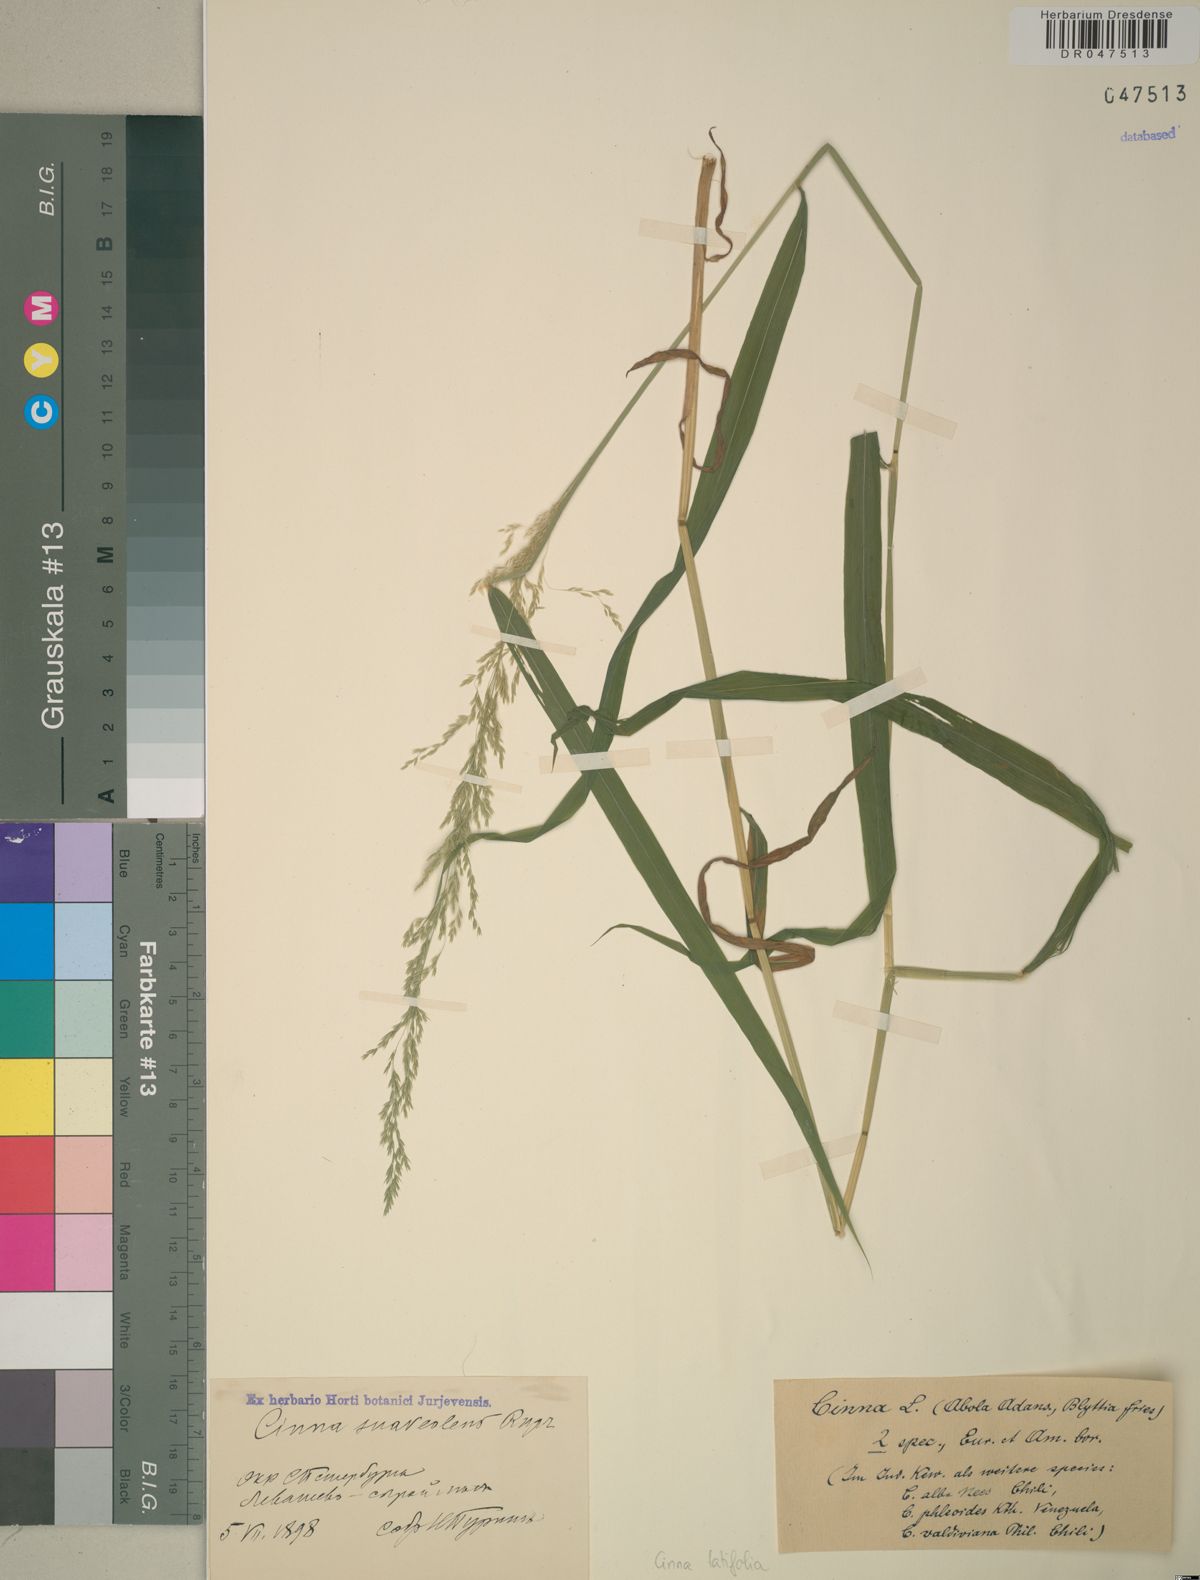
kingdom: Plantae
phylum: Tracheophyta
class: Liliopsida
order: Poales
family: Poaceae
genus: Cinna
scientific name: Cinna latifolia
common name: Drooping woodreed
